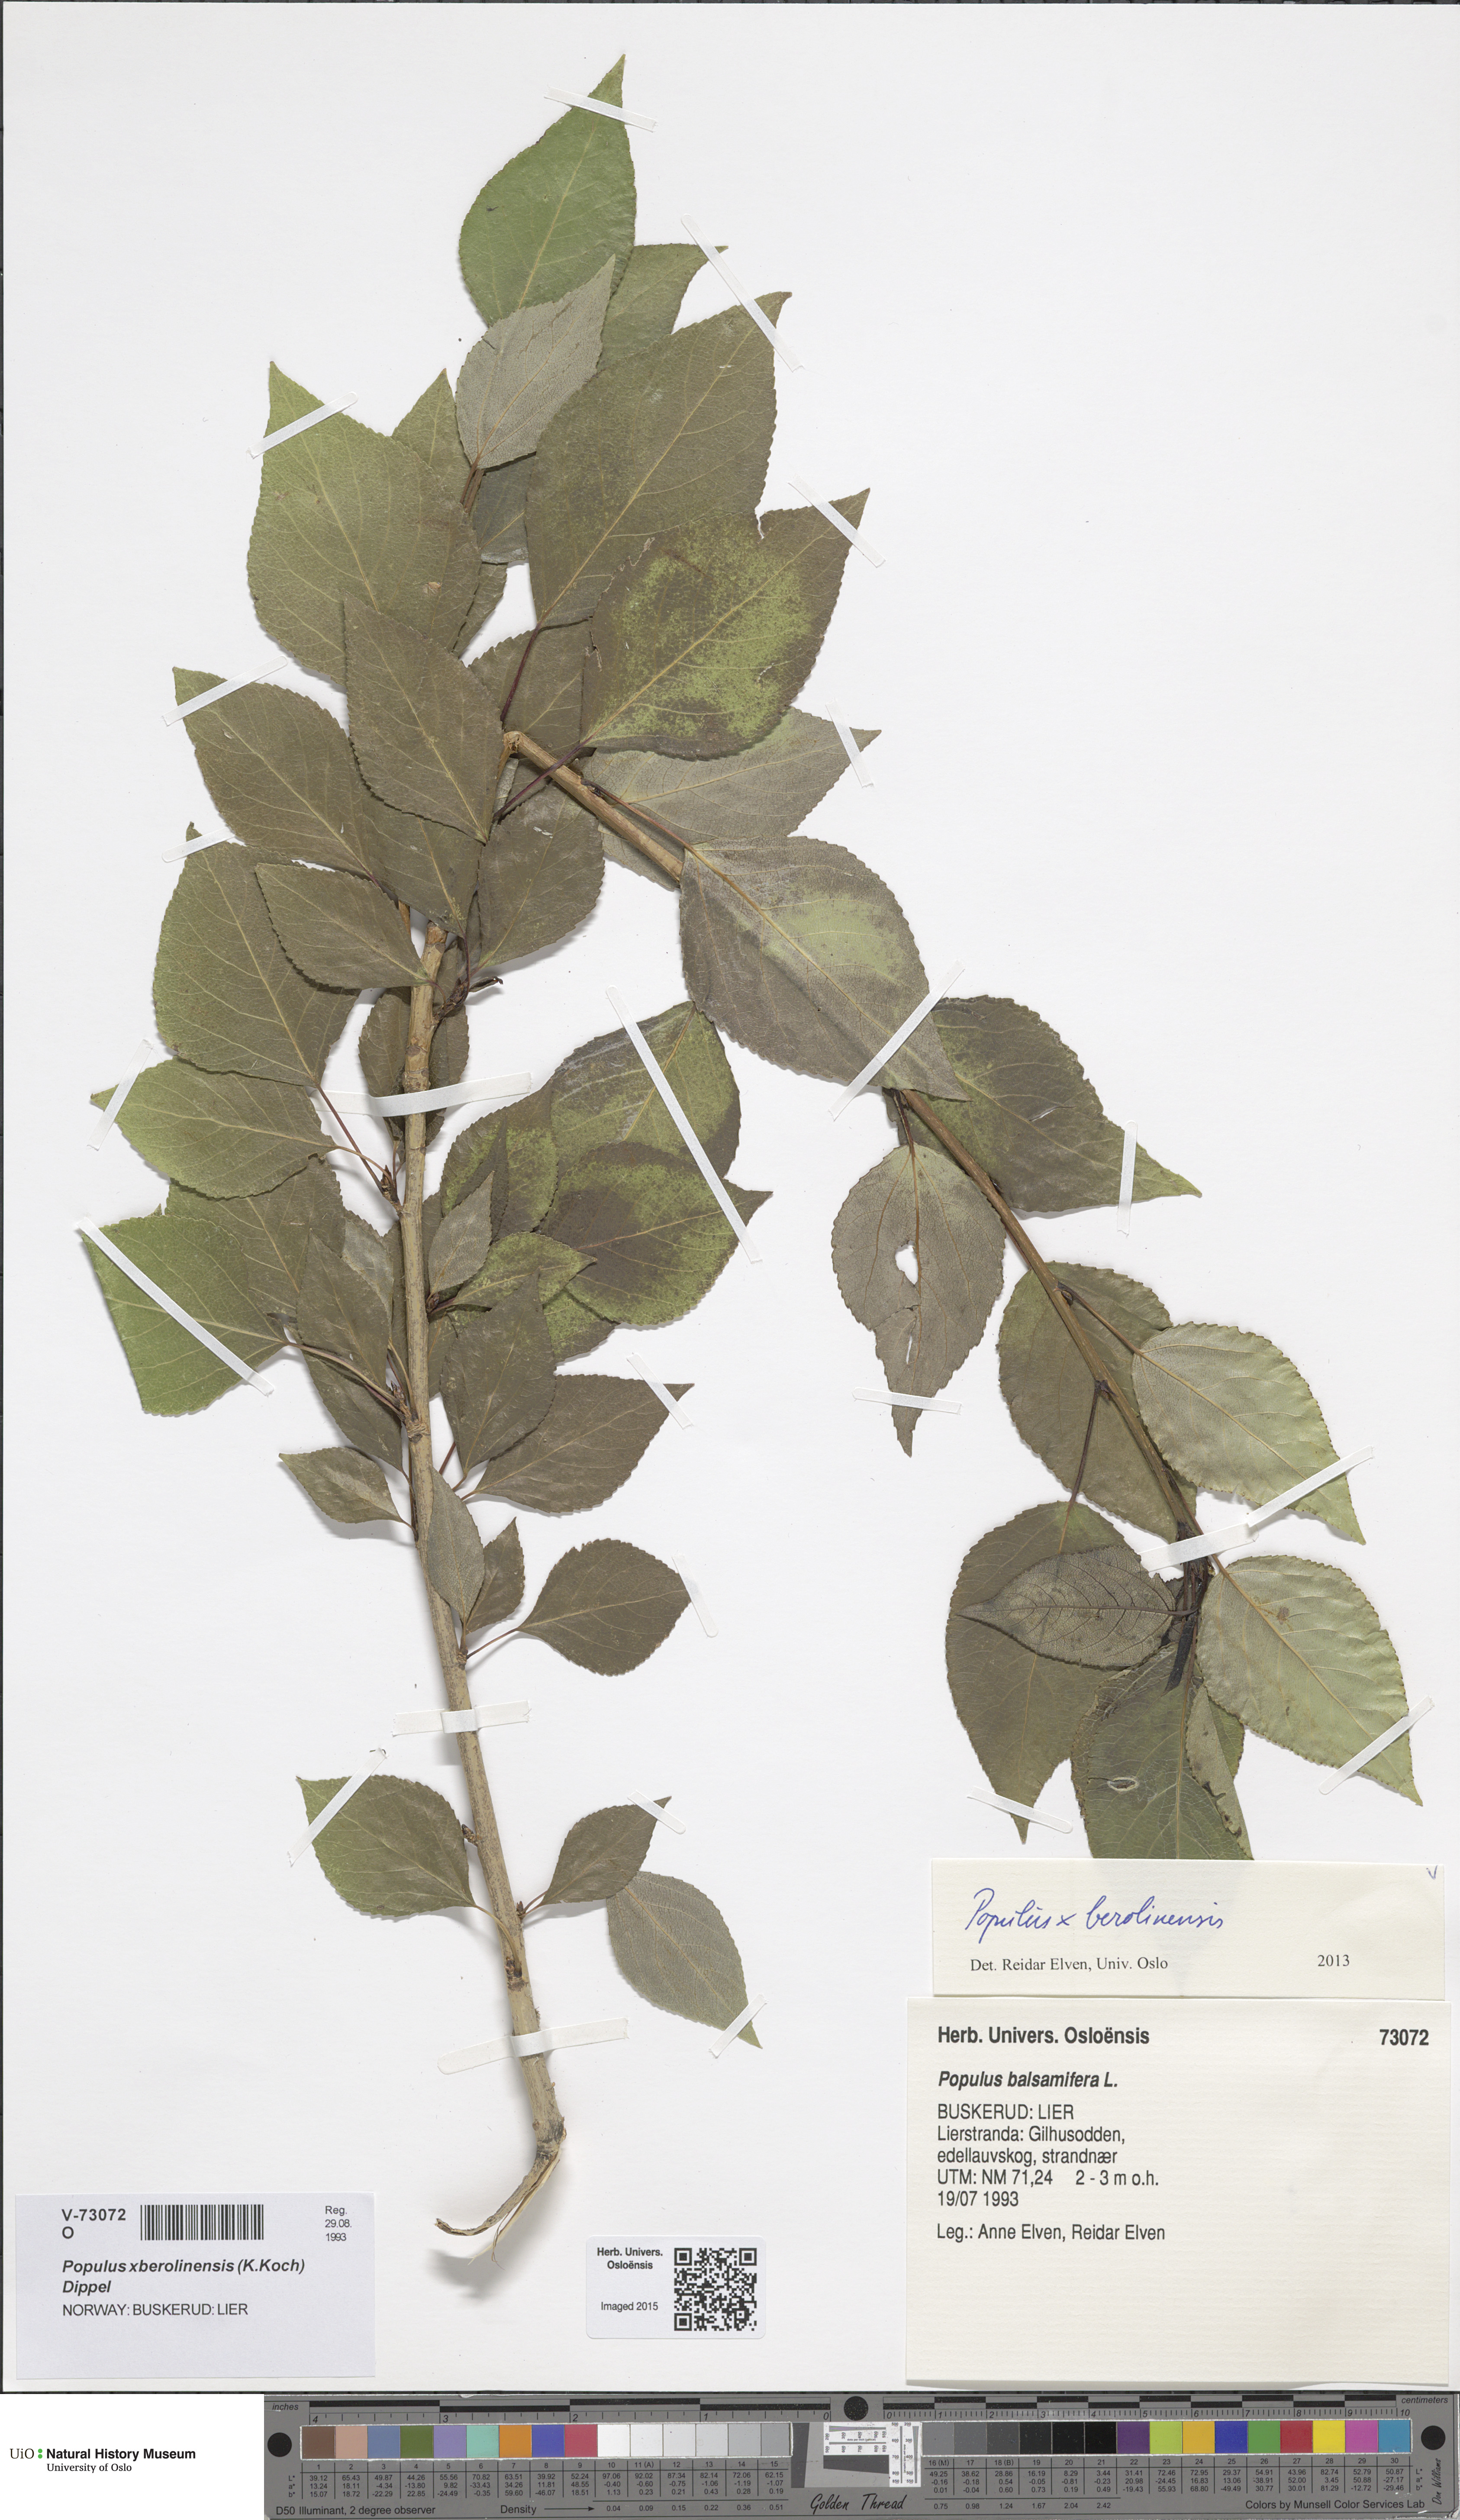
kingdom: Plantae
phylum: Tracheophyta
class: Magnoliopsida
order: Malpighiales
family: Salicaceae
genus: Populus
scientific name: Populus berolinensis
